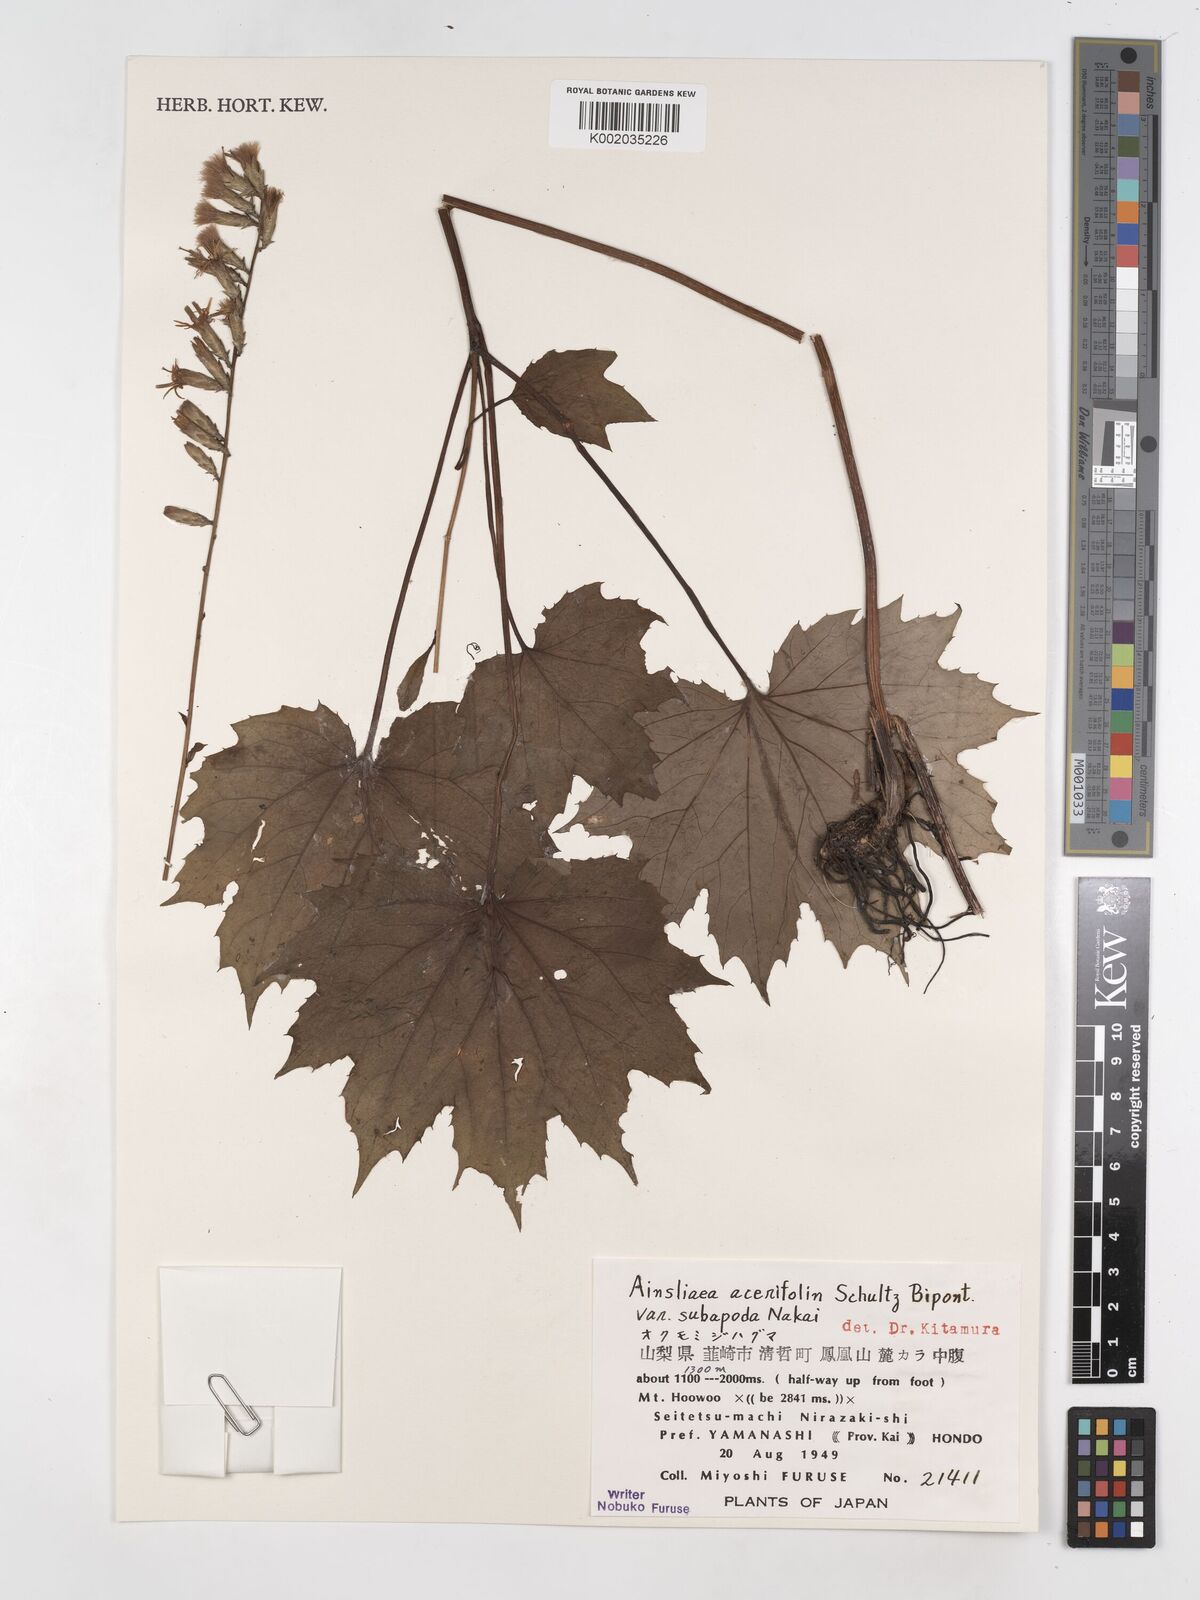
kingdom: Plantae
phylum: Tracheophyta
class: Magnoliopsida
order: Asterales
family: Asteraceae
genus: Ainsliaea
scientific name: Ainsliaea acerifolia
